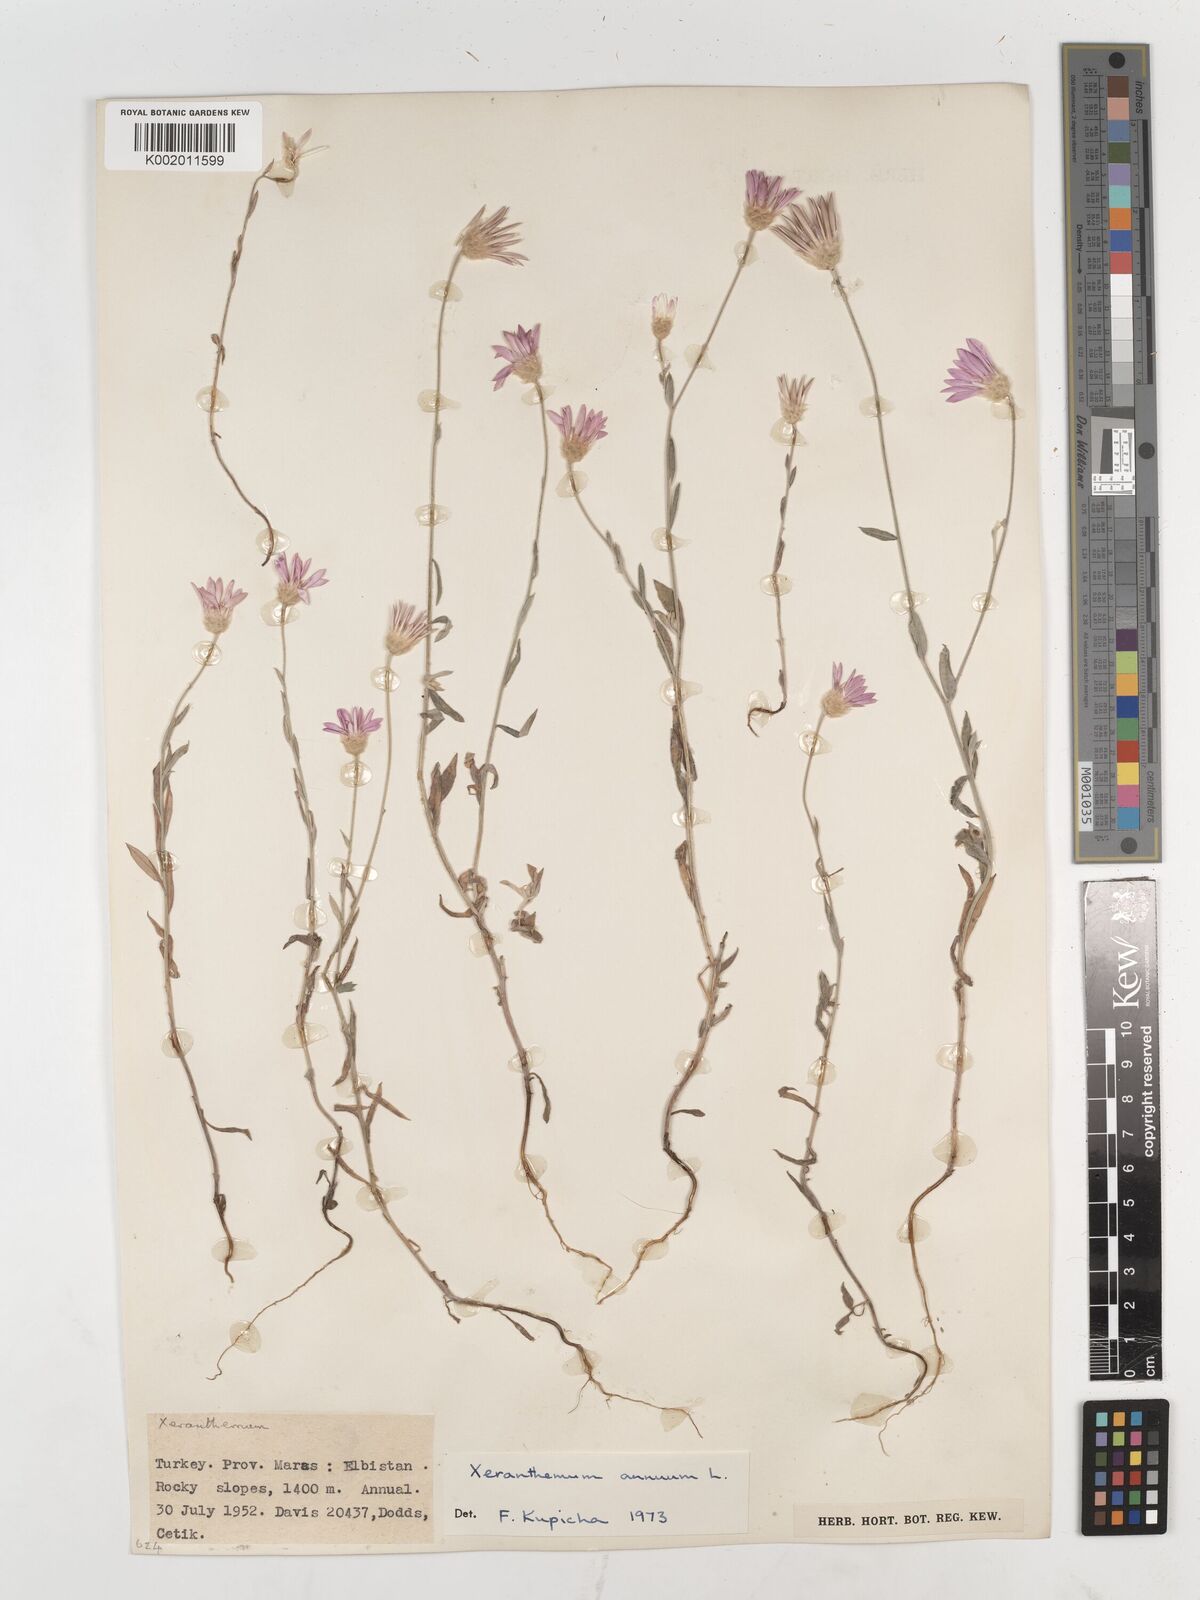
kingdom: Plantae
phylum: Tracheophyta
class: Magnoliopsida
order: Asterales
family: Asteraceae
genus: Xeranthemum
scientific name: Xeranthemum annuum
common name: Immortelle
